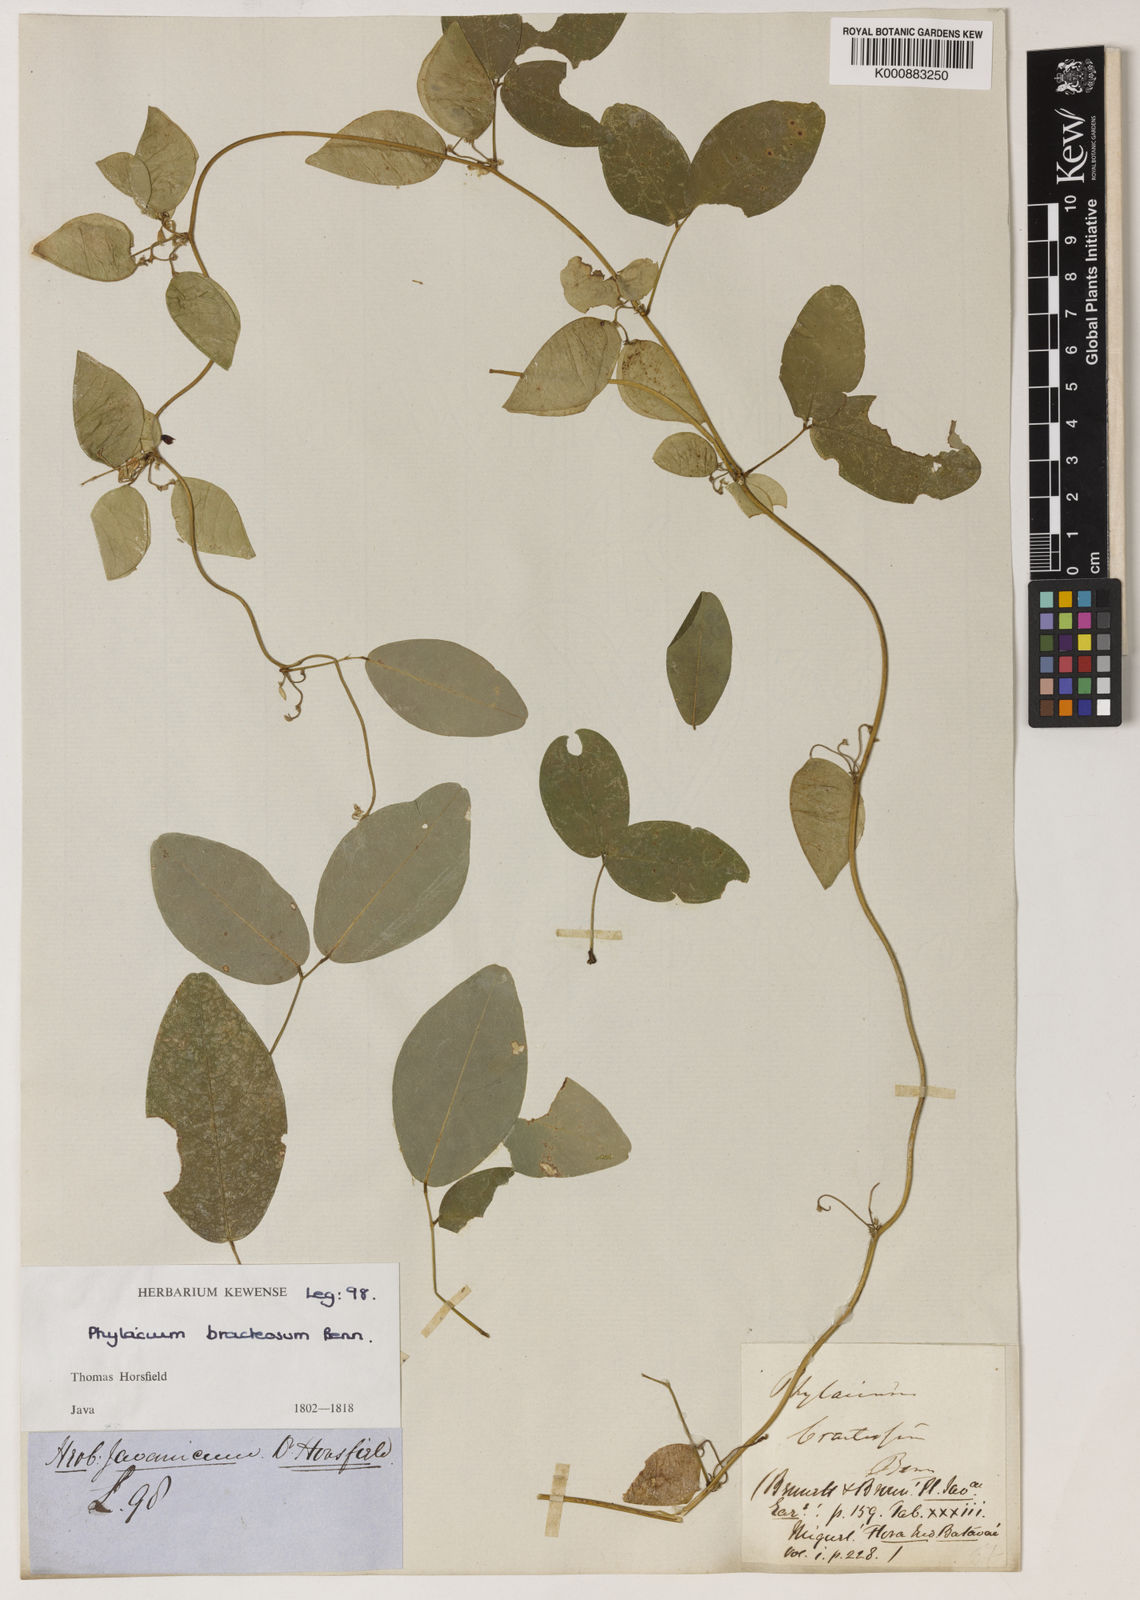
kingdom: Plantae
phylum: Tracheophyta
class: Magnoliopsida
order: Fabales
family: Fabaceae
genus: Phylacium
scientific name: Phylacium bracteosum
